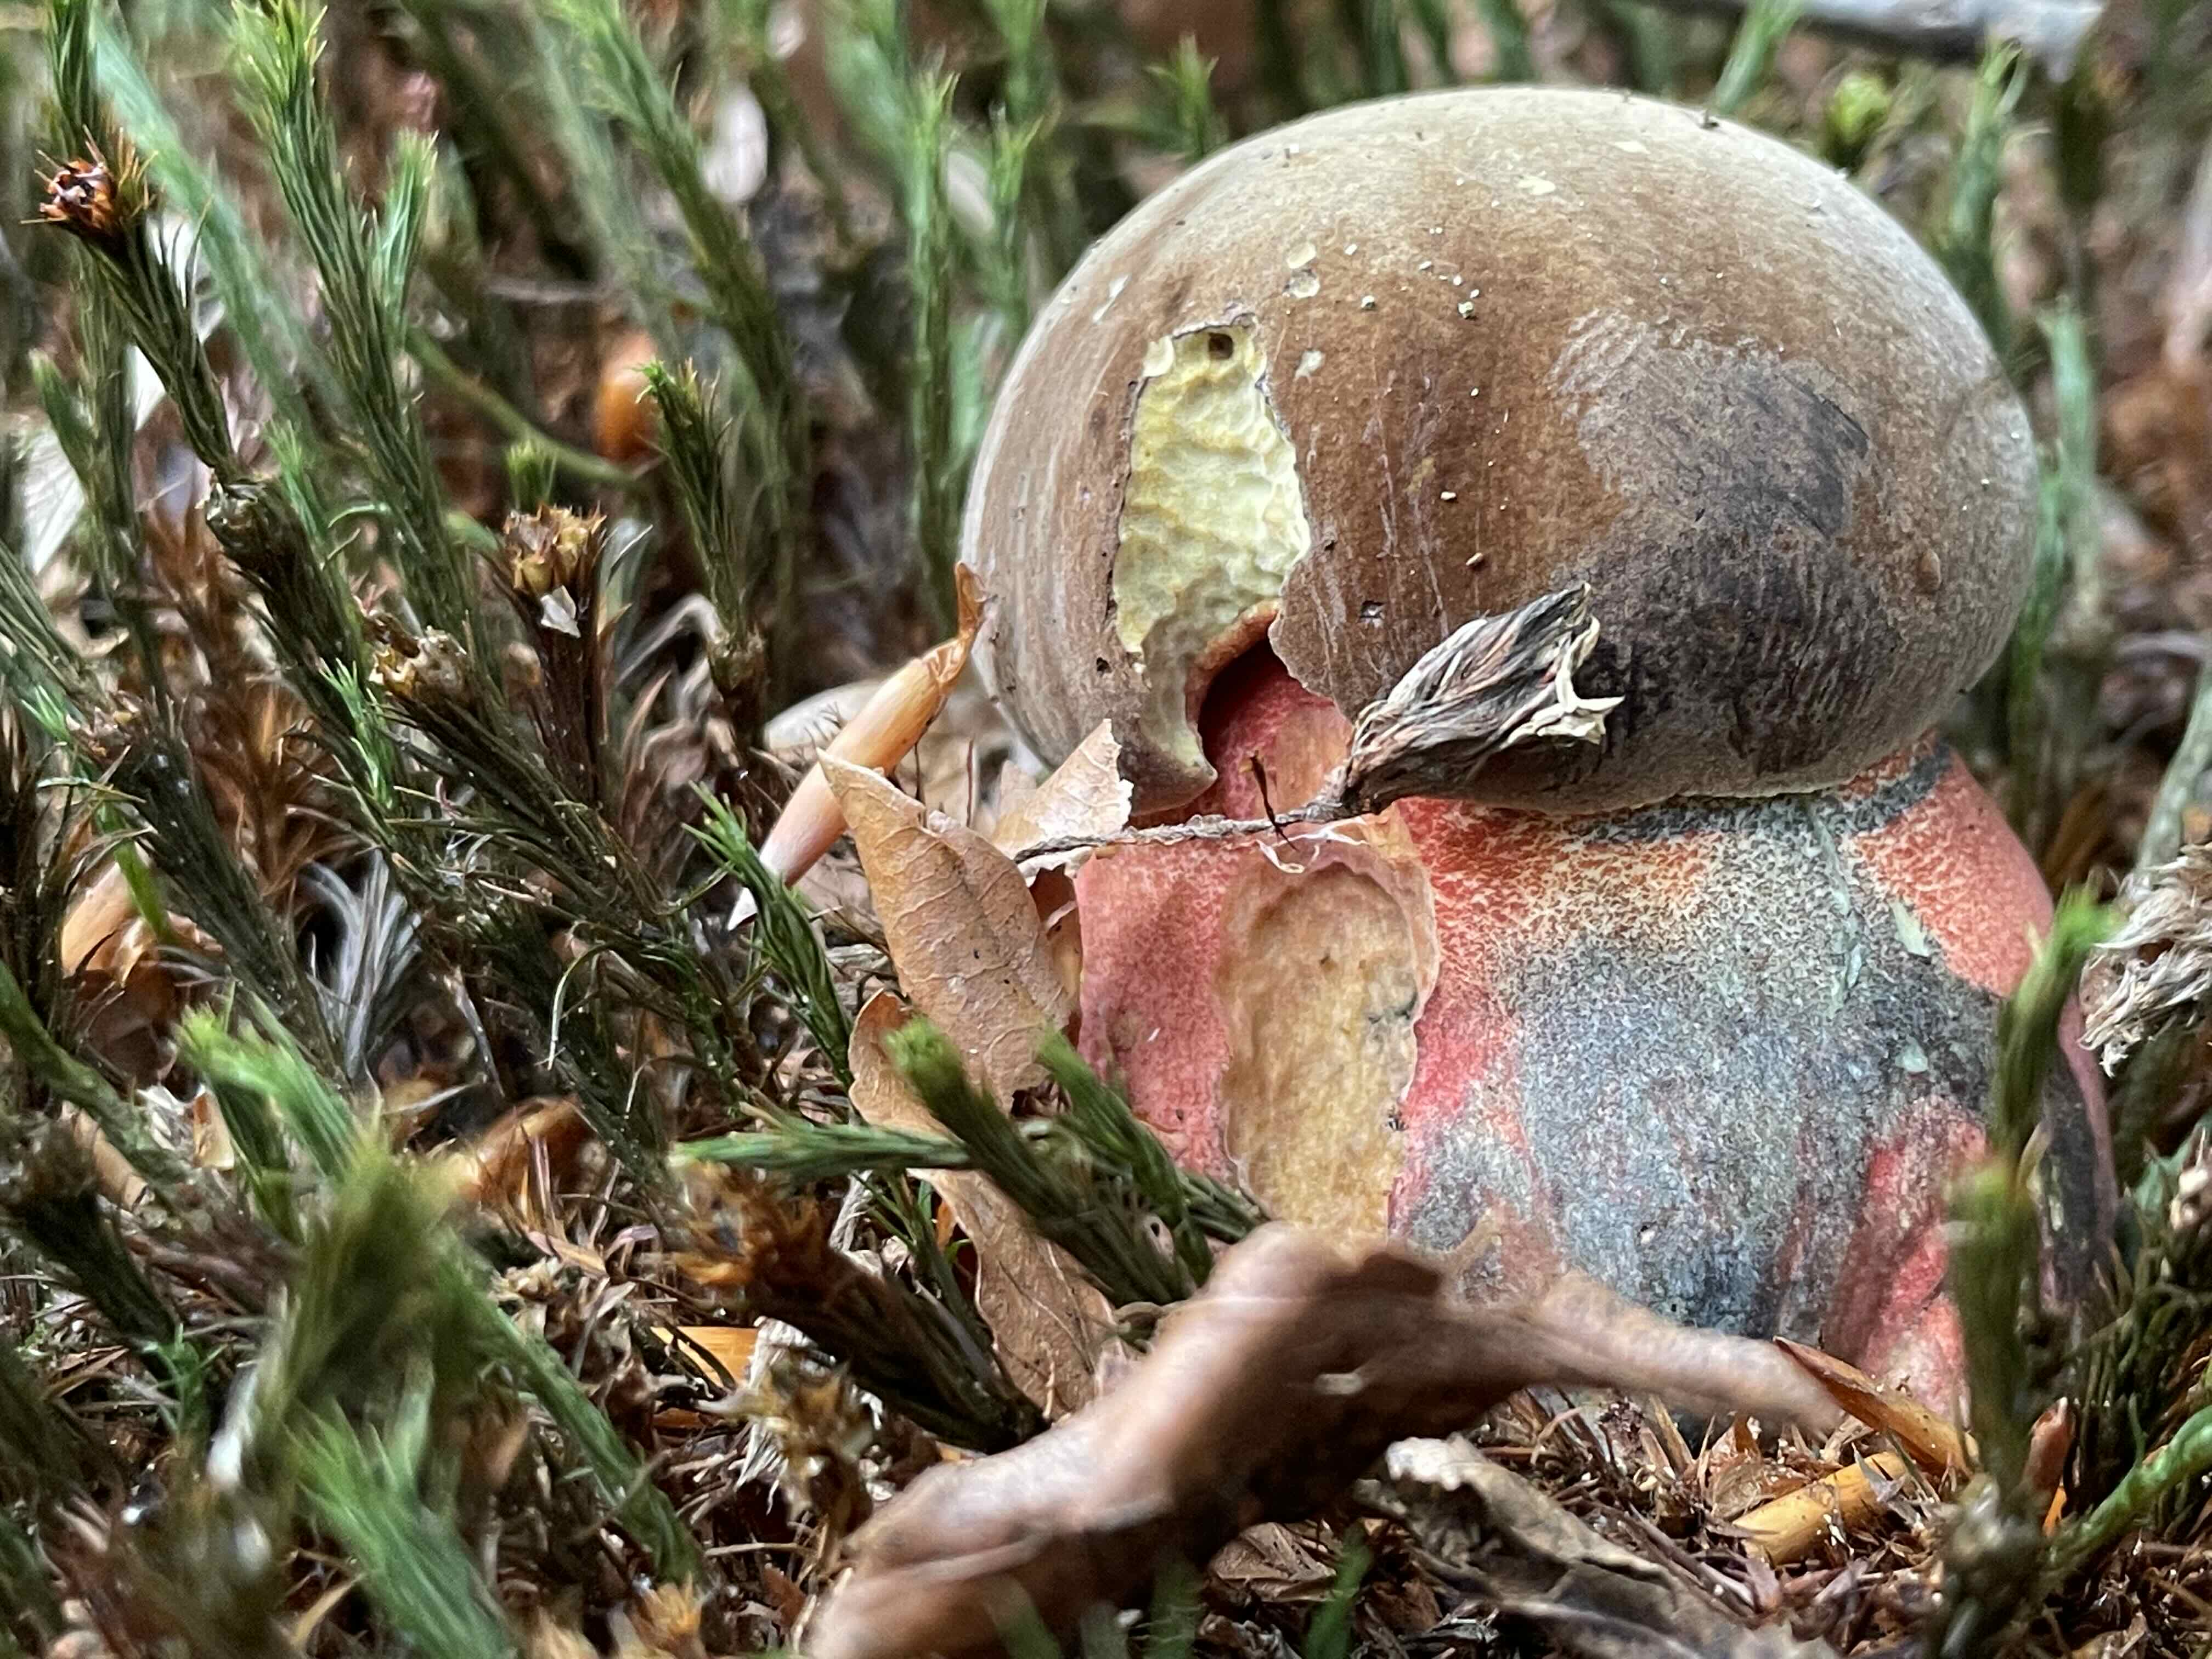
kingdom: Fungi
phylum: Basidiomycota
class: Agaricomycetes
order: Boletales
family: Boletaceae
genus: Neoboletus
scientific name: Neoboletus erythropus
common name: punktstokket indigorørhat
